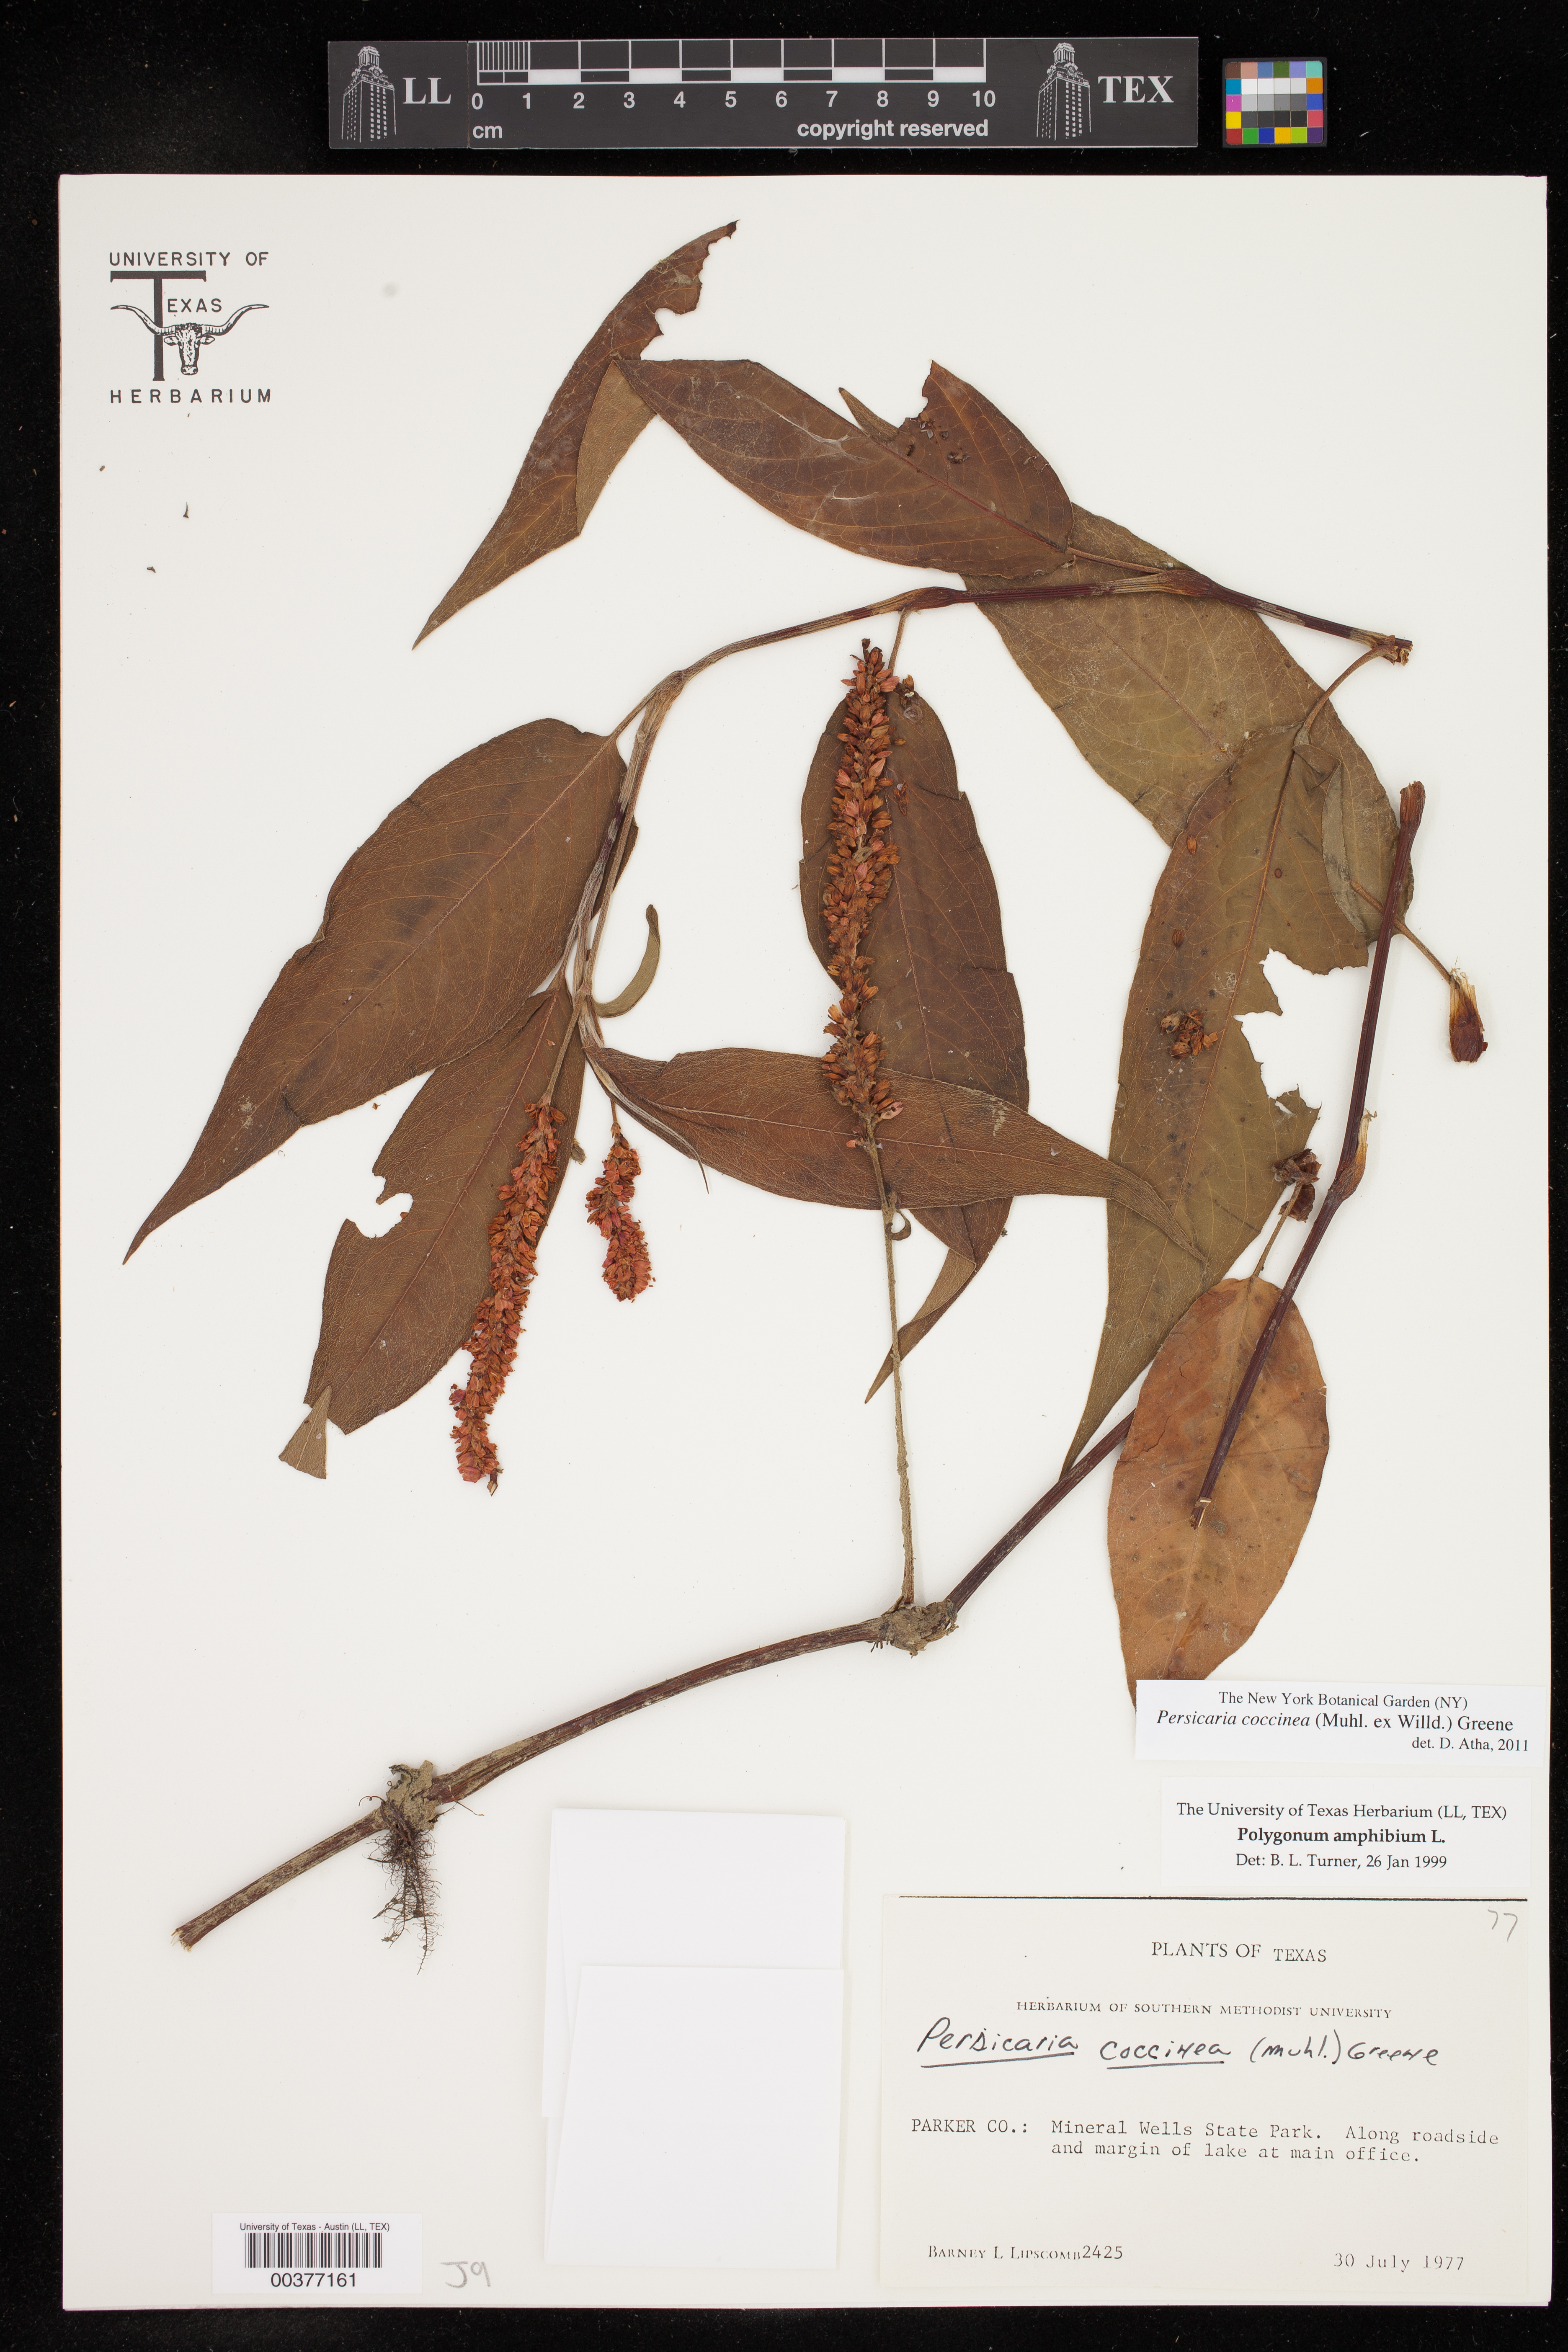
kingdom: Plantae
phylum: Tracheophyta
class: Magnoliopsida
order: Caryophyllales
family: Polygonaceae
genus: Persicaria
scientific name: Persicaria amphibia
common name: Amphibious bistort
